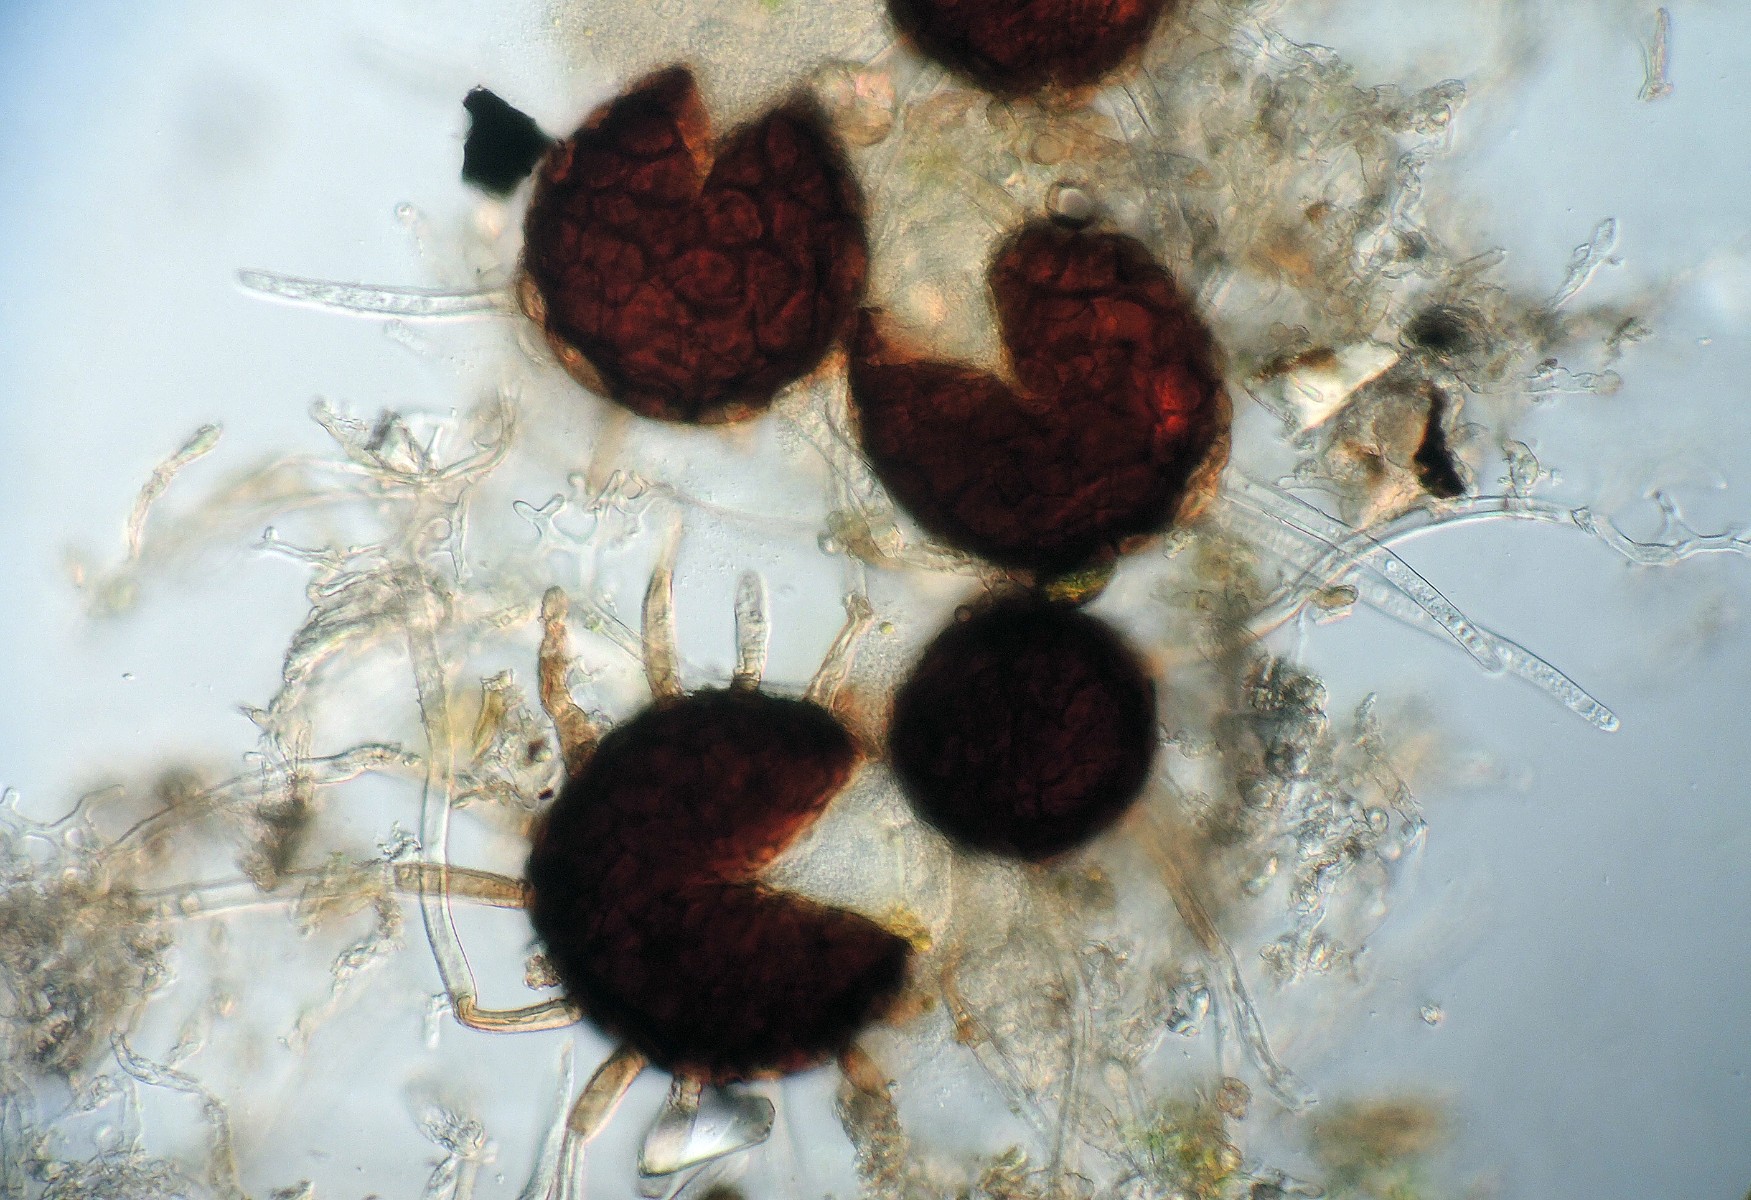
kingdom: Fungi
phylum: Ascomycota
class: Leotiomycetes
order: Helotiales
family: Erysiphaceae
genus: Erysiphe
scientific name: Erysiphe lonicerae
